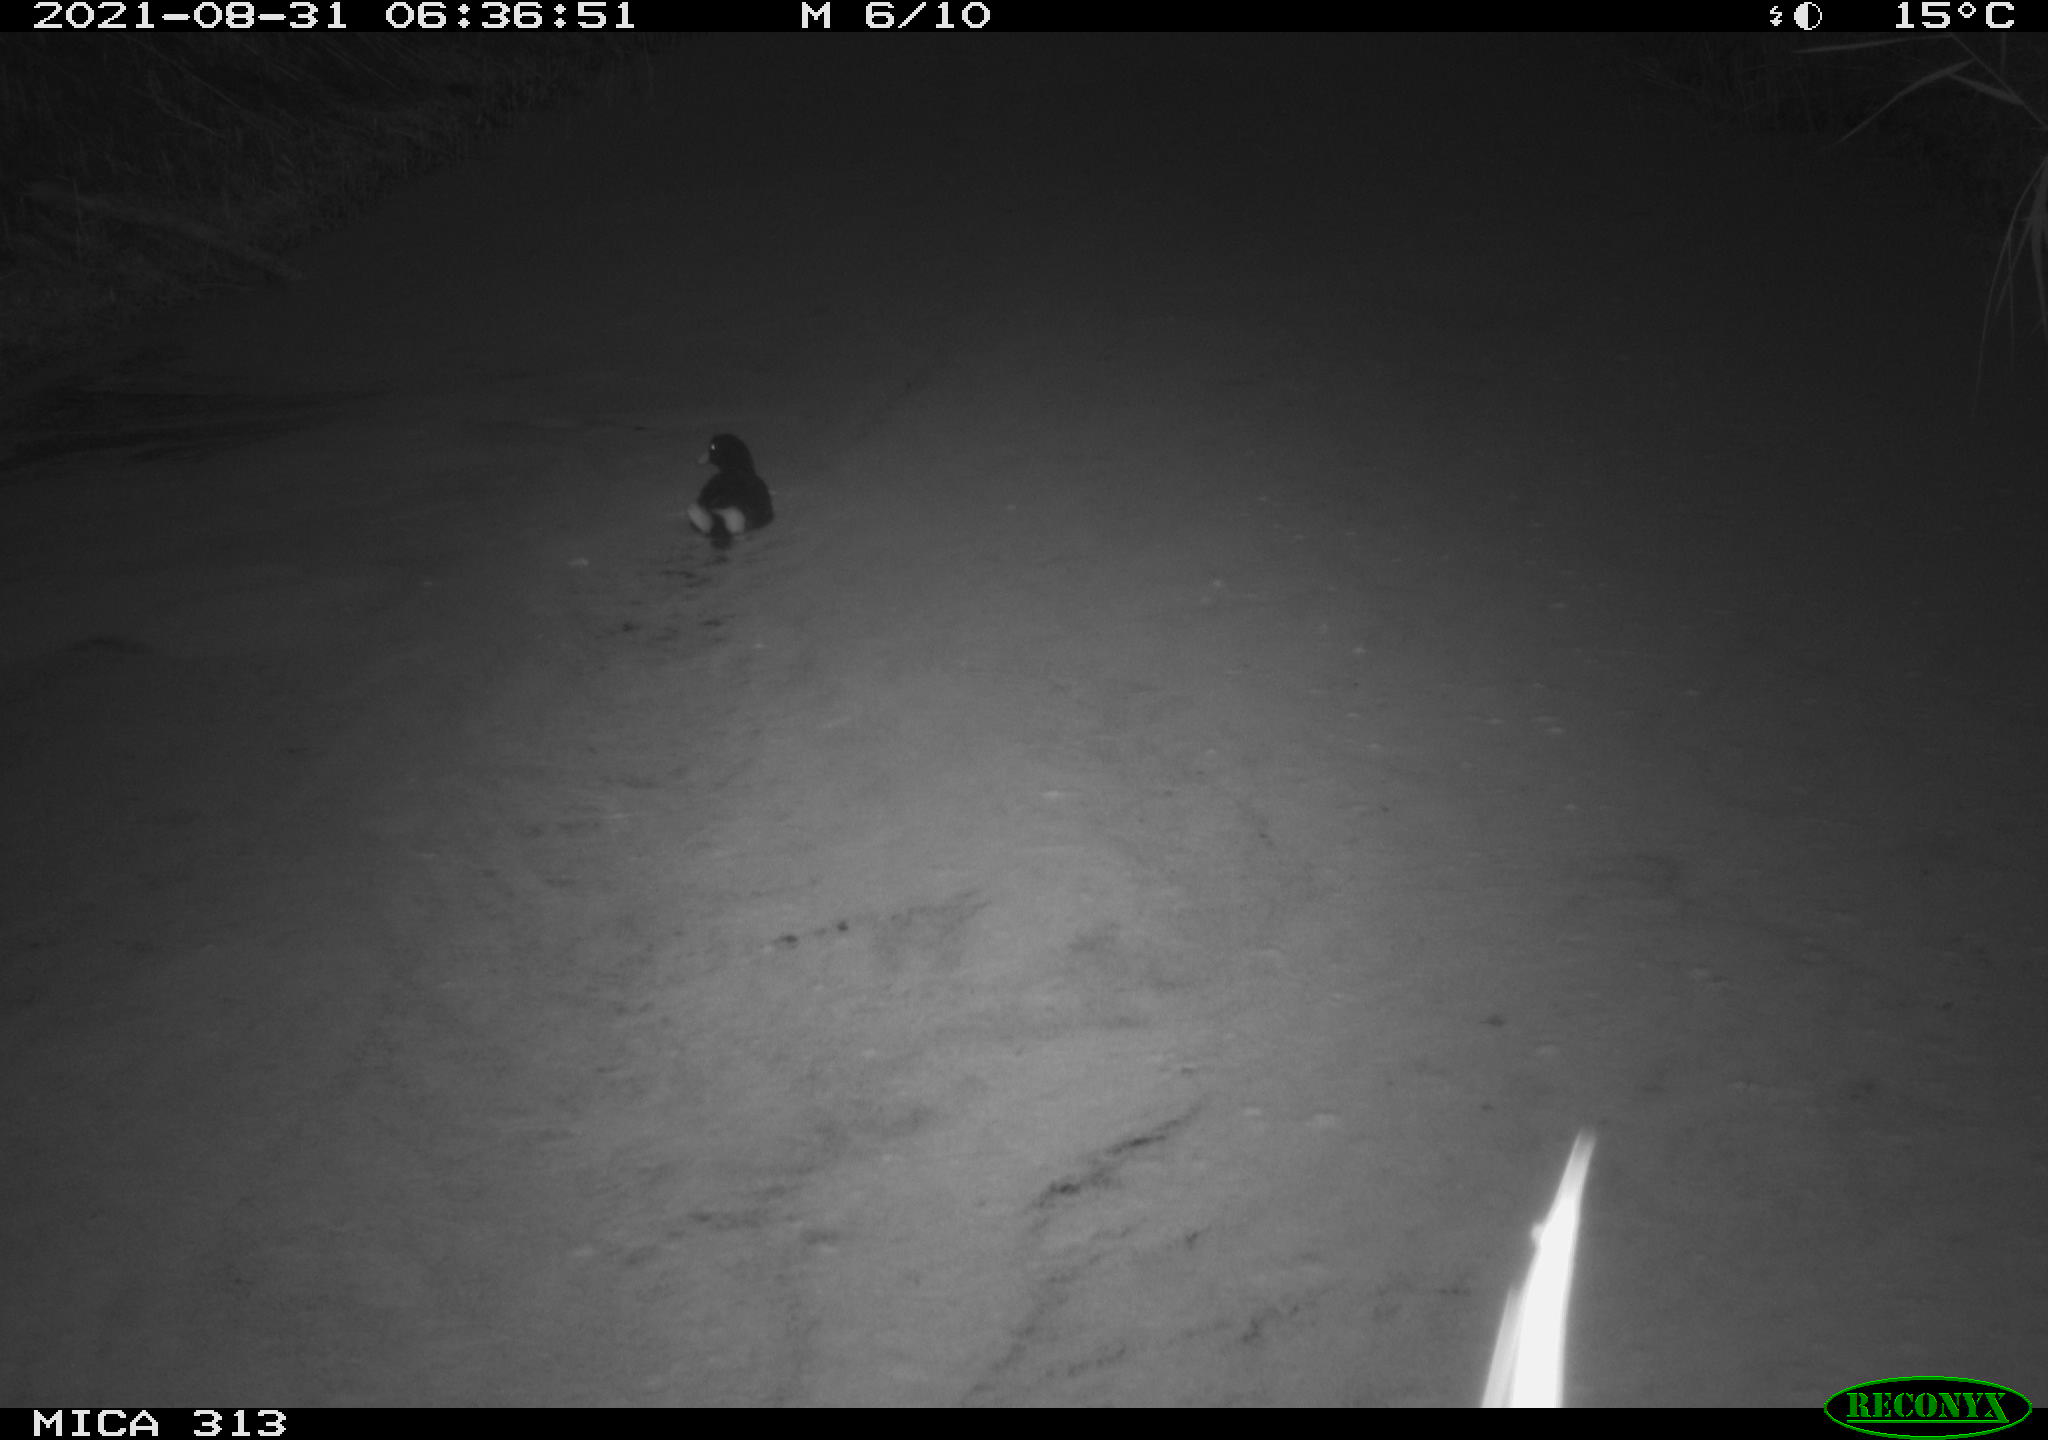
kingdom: Animalia
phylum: Chordata
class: Aves
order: Gruiformes
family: Rallidae
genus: Gallinula
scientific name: Gallinula chloropus
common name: Common moorhen
